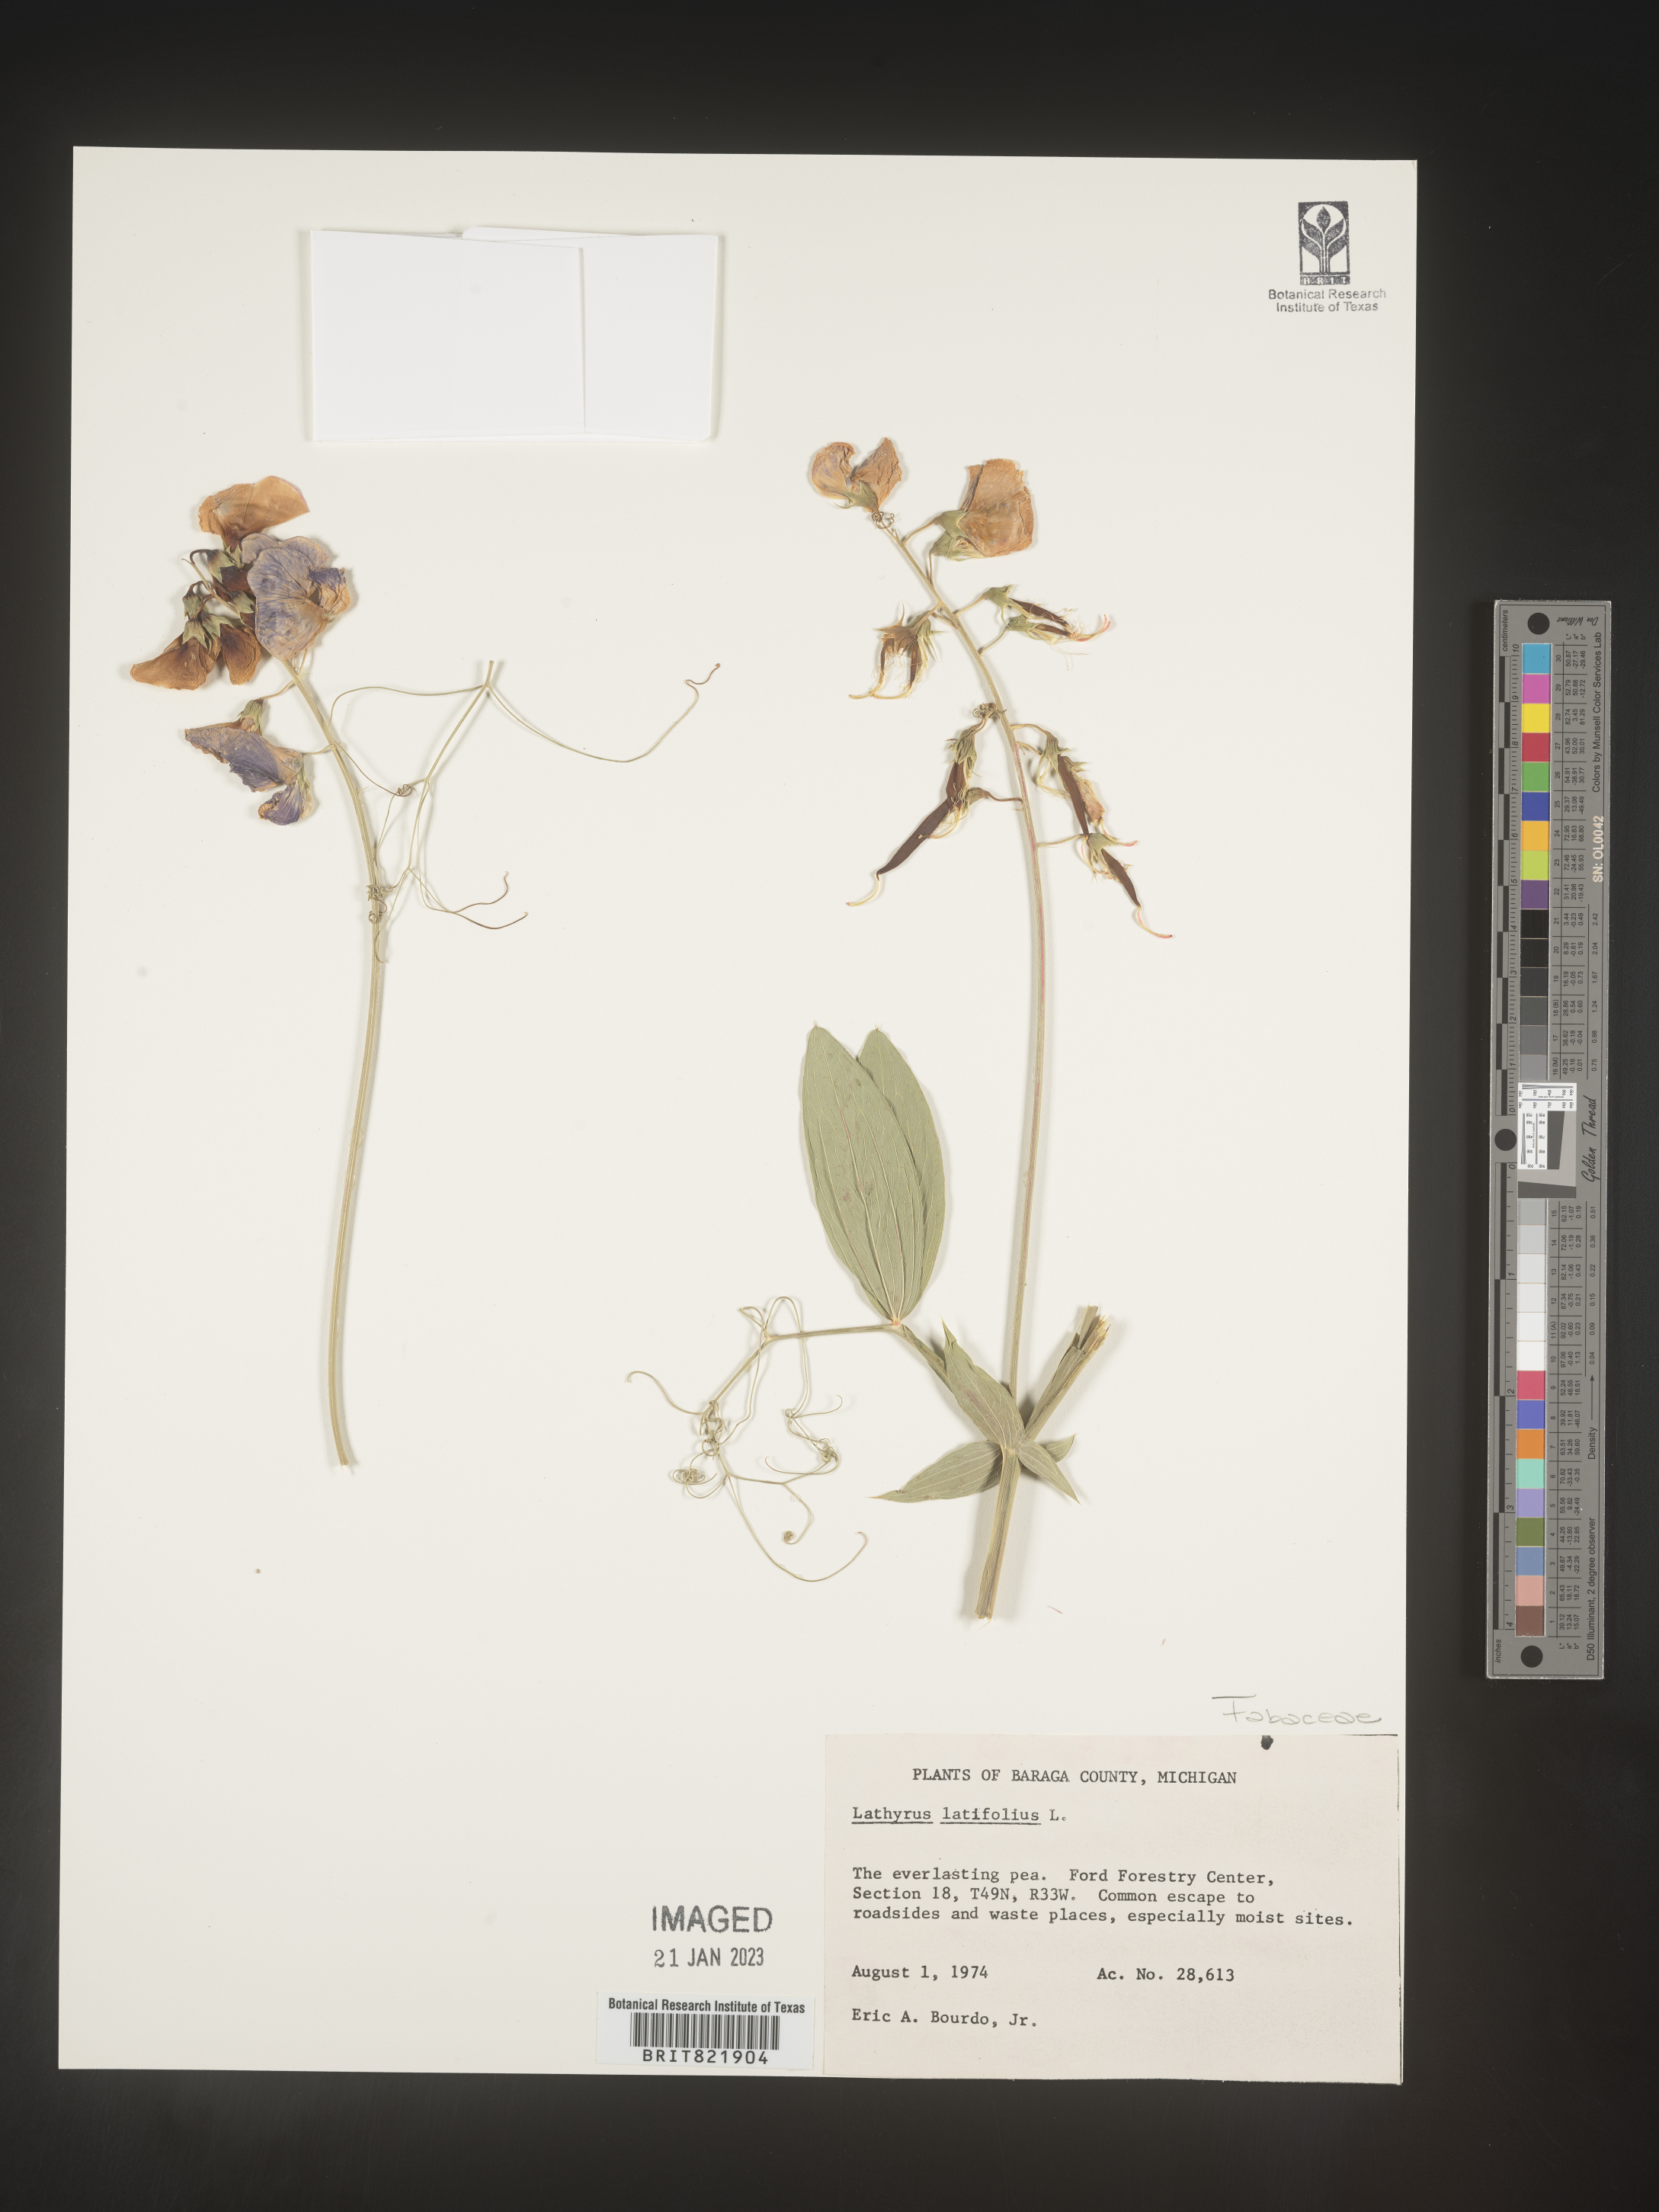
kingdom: Plantae
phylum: Tracheophyta
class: Magnoliopsida
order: Fabales
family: Fabaceae
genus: Lathyrus
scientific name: Lathyrus latifolius
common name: Perennial pea
